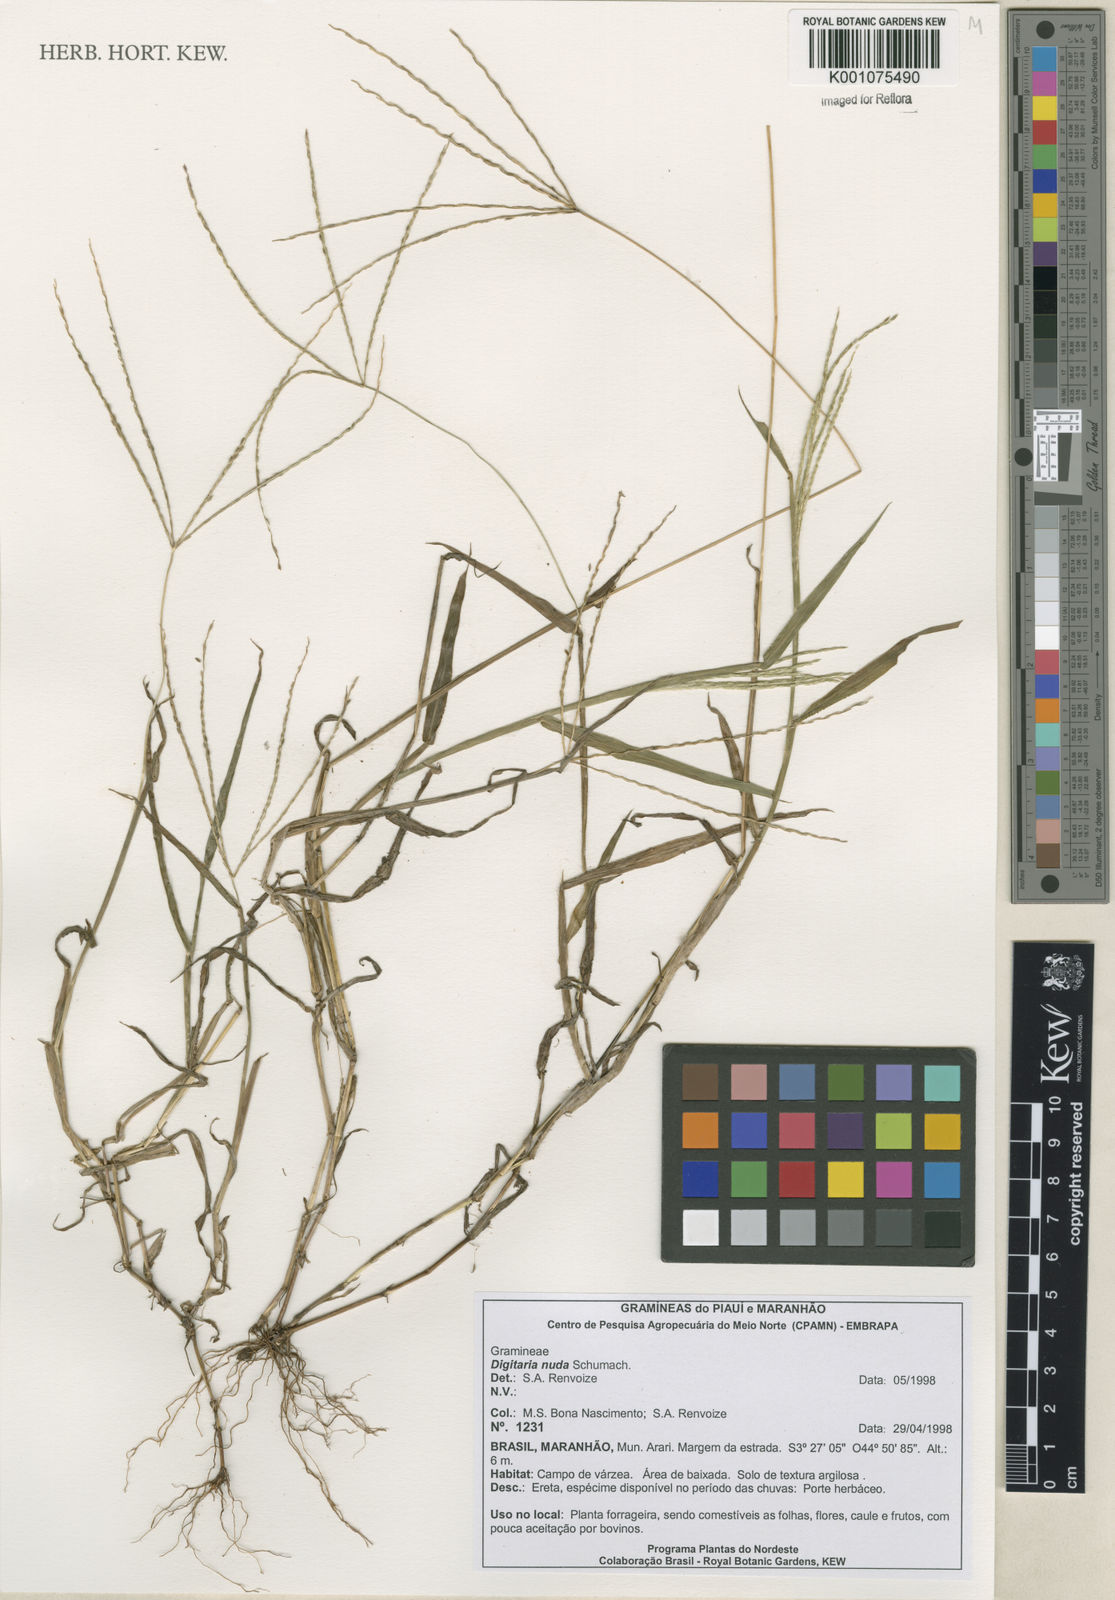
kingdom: Plantae
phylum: Tracheophyta
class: Liliopsida
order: Poales
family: Poaceae
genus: Digitaria
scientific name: Digitaria nuda
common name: Naked crabgrass
